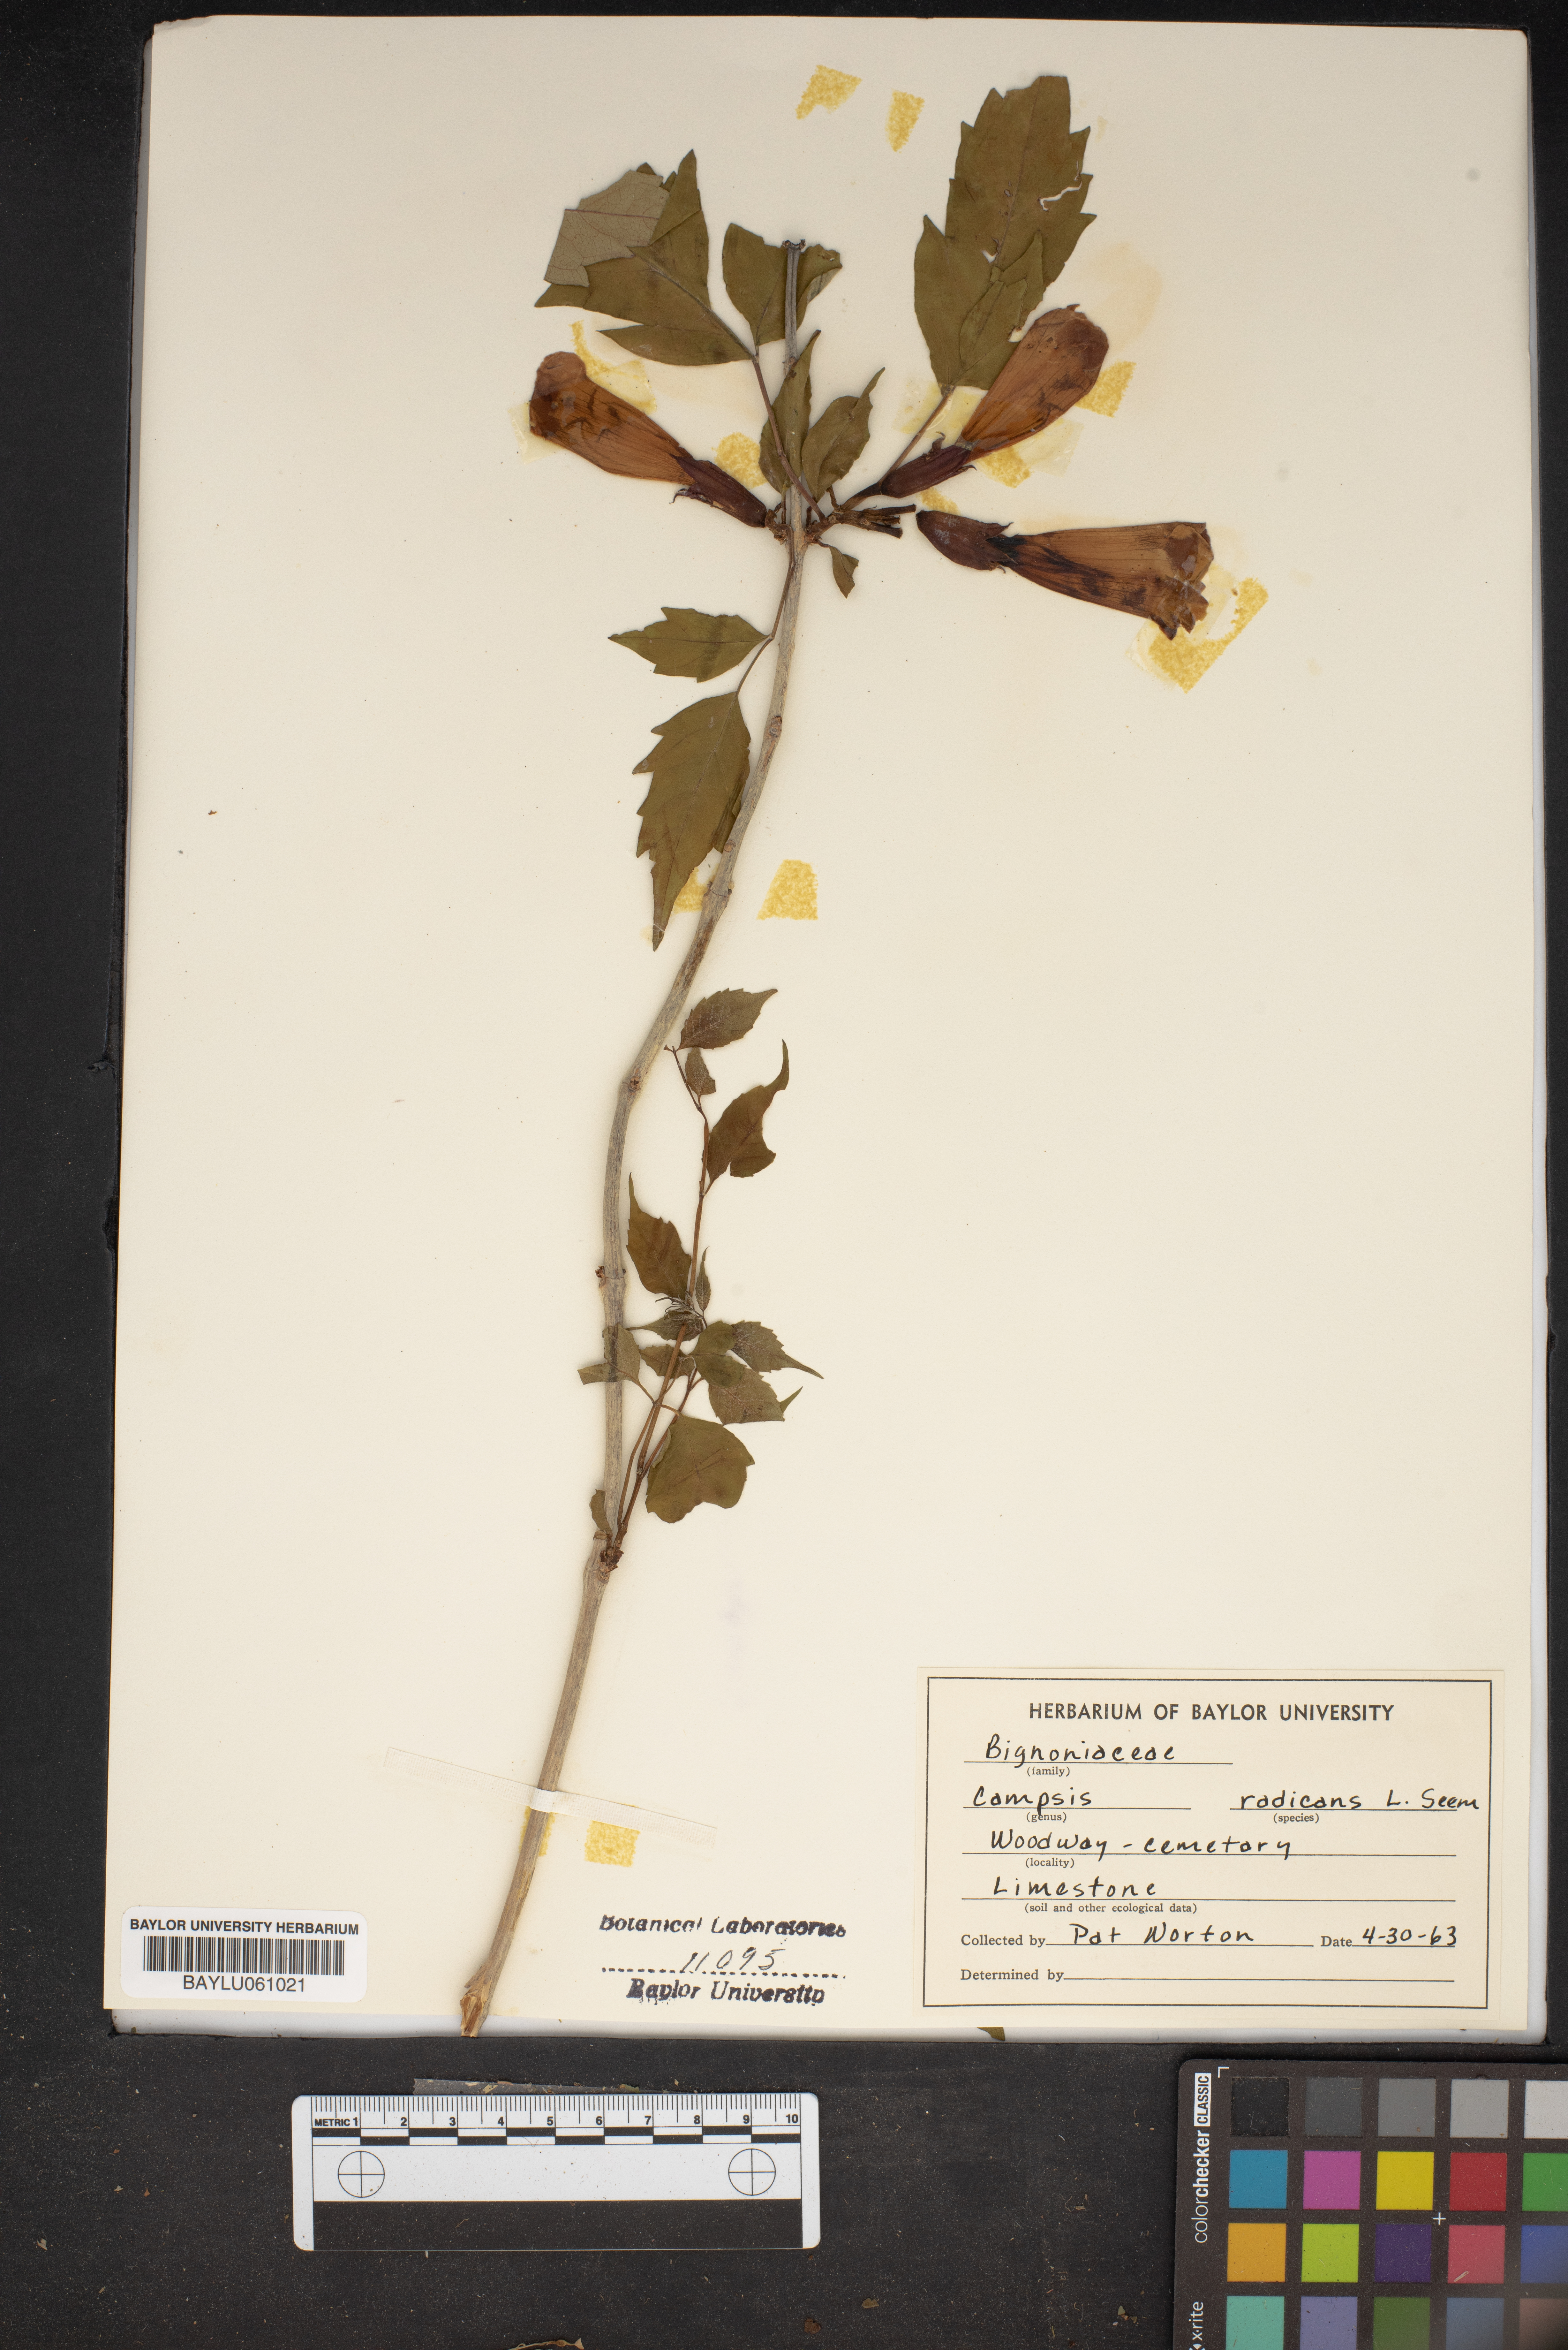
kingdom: Plantae
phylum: Tracheophyta
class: Magnoliopsida
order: Lamiales
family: Bignoniaceae
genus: Campsis
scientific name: Campsis radicans
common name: Trumpet-creeper
